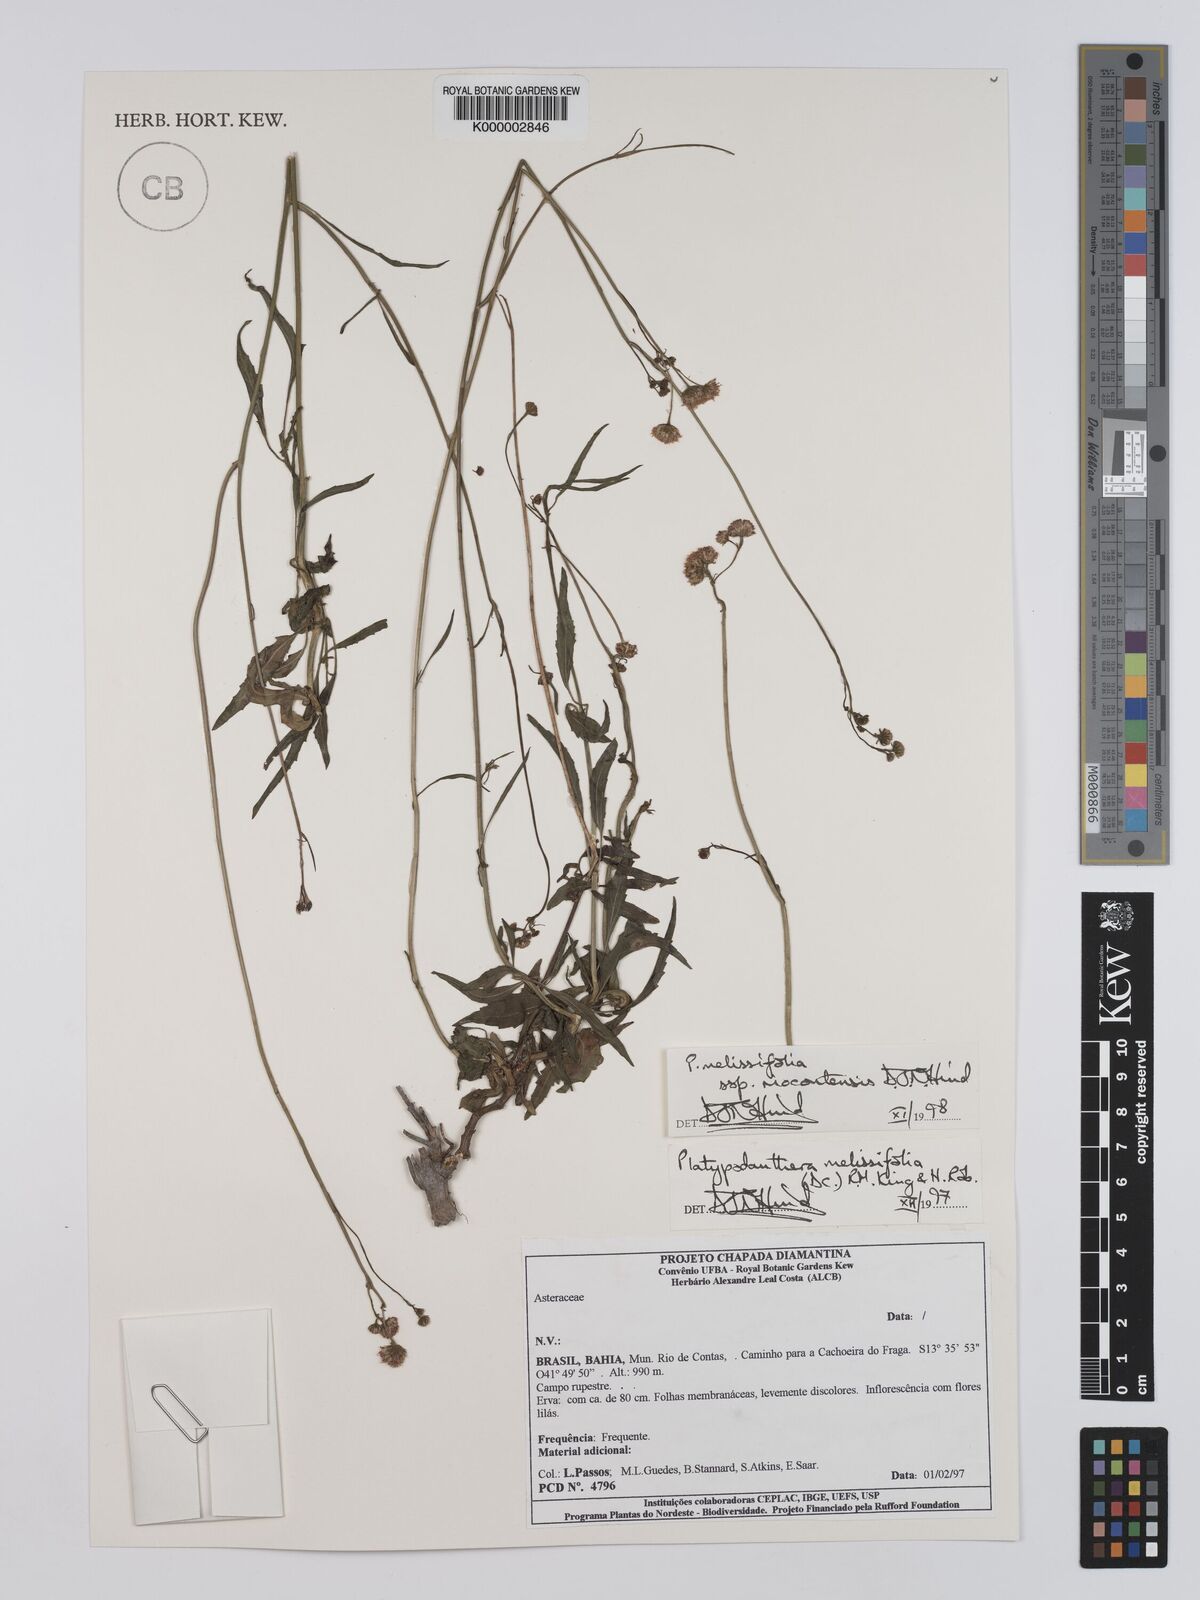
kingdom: Plantae
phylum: Tracheophyta
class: Magnoliopsida
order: Asterales
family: Asteraceae
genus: Platypodanthera
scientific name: Platypodanthera melissifolia
